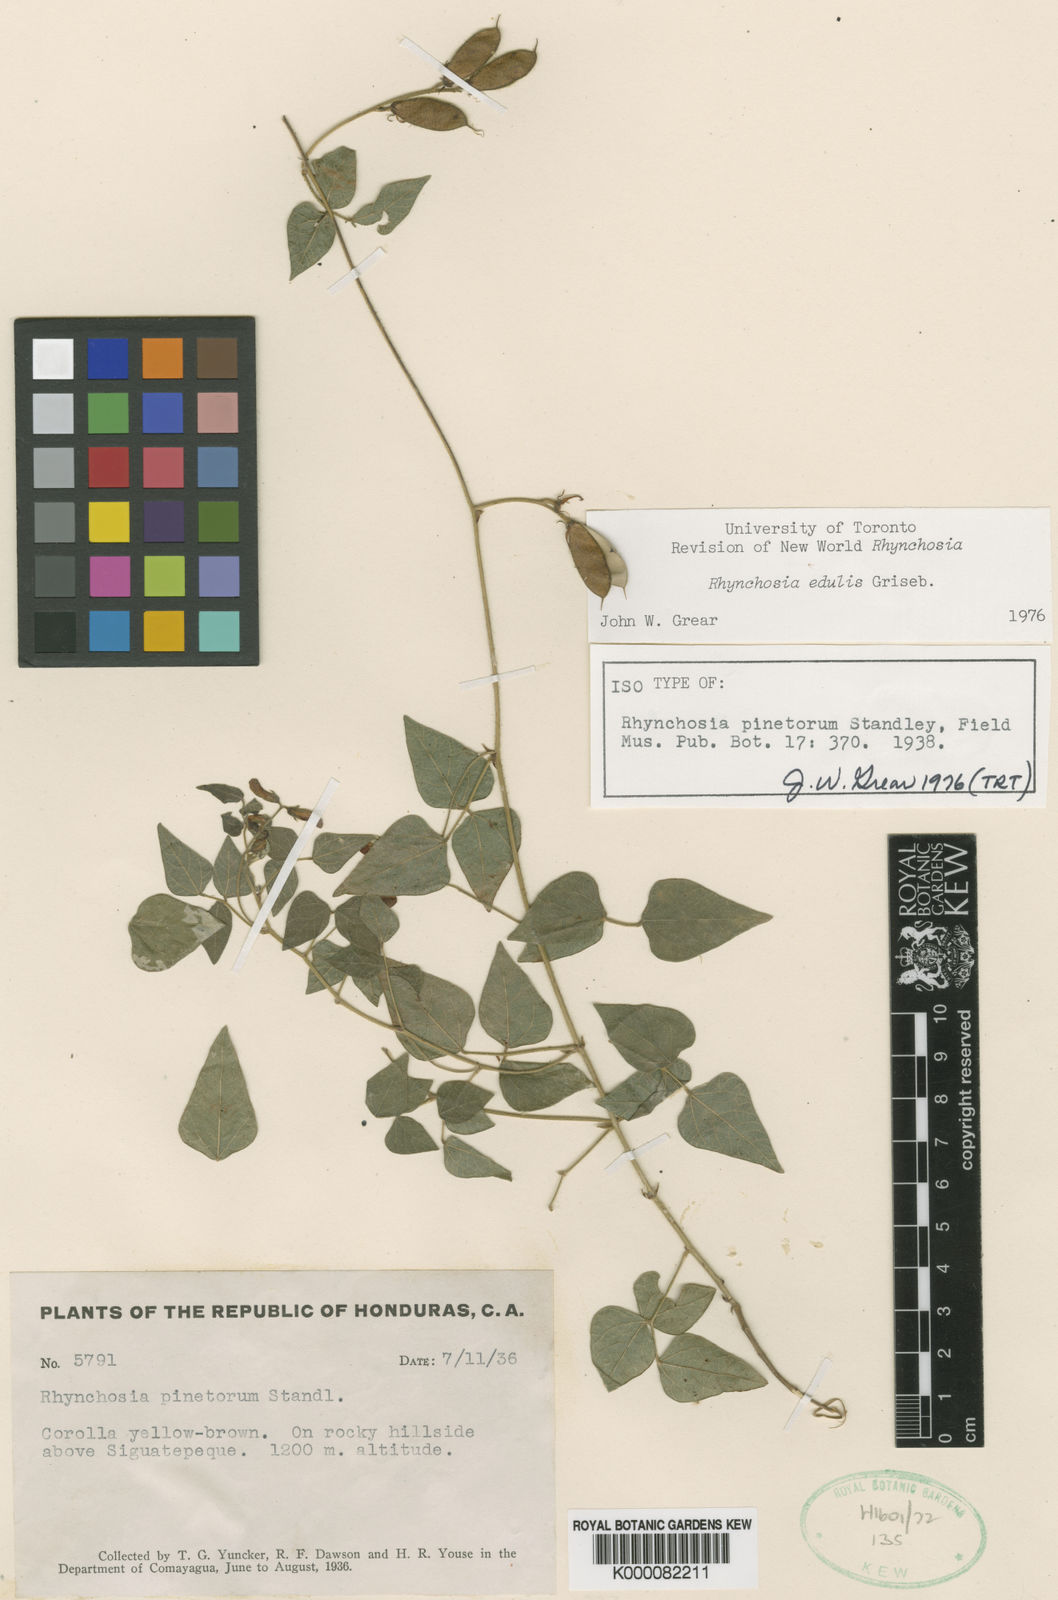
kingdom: Plantae
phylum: Tracheophyta
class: Magnoliopsida
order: Fabales
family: Fabaceae
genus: Rhynchosia
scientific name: Rhynchosia edulis
